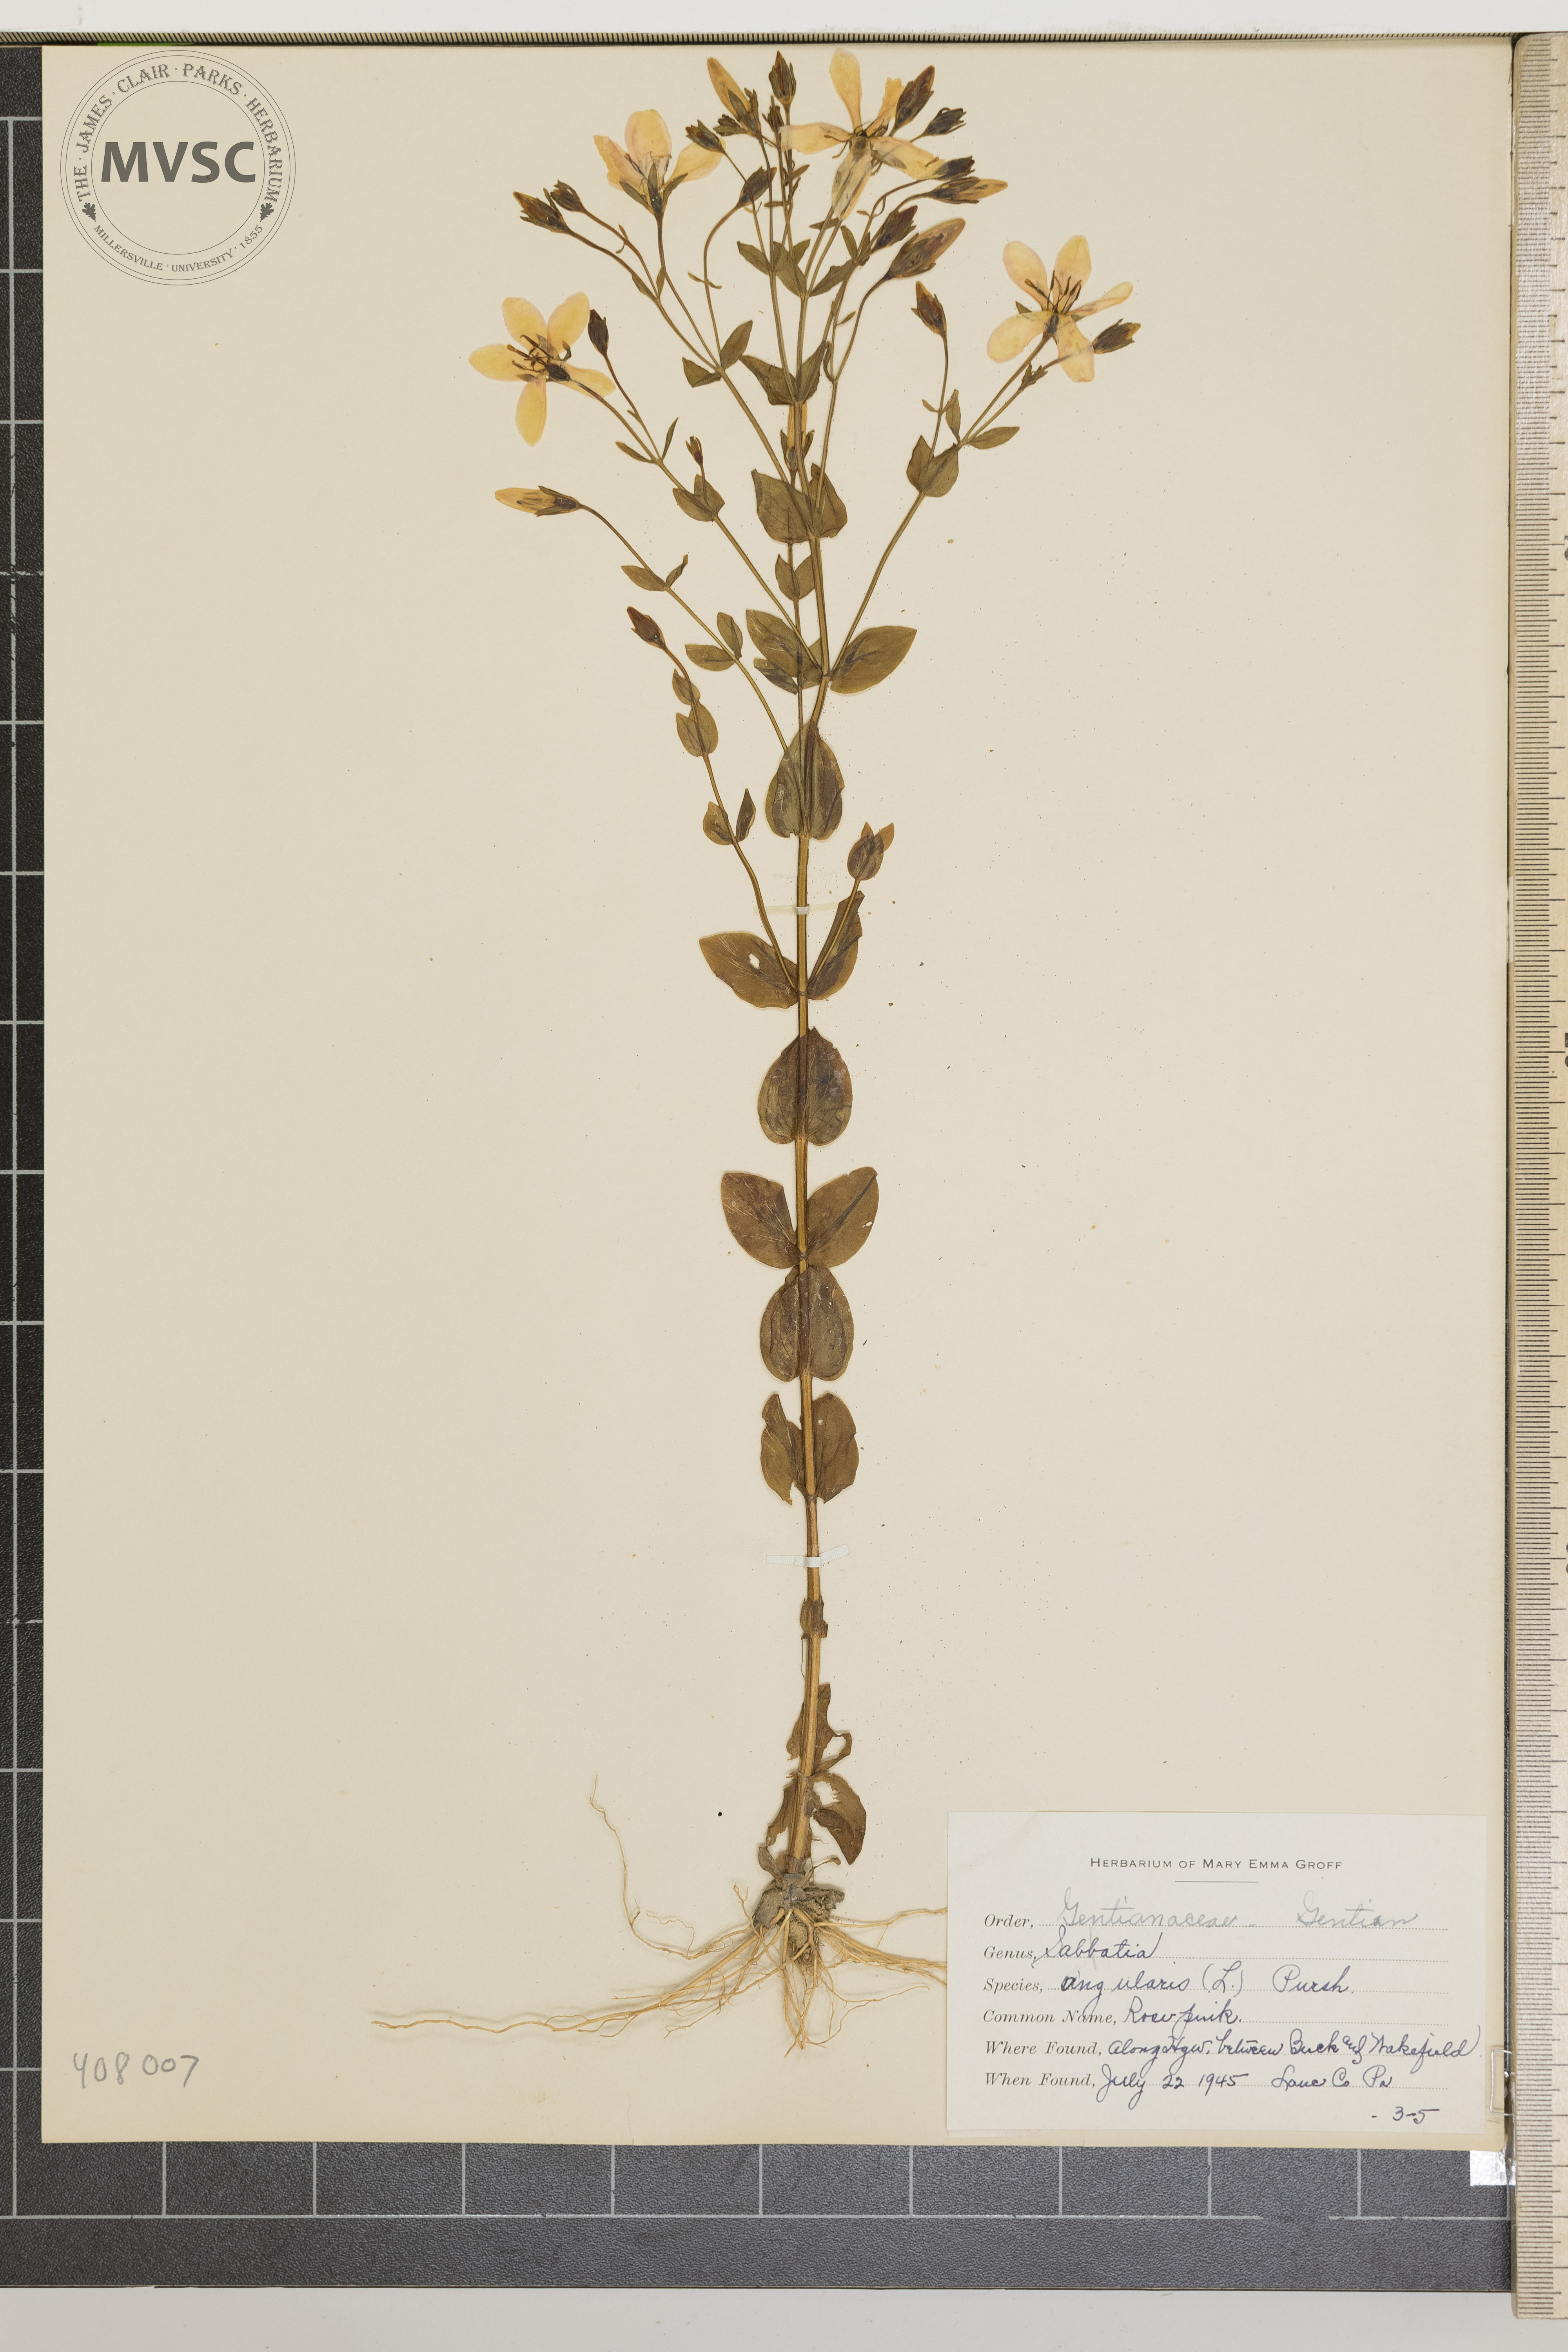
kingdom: Plantae
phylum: Tracheophyta
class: Magnoliopsida
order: Gentianales
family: Gentianaceae
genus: Sabatia
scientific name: Sabatia angularis
